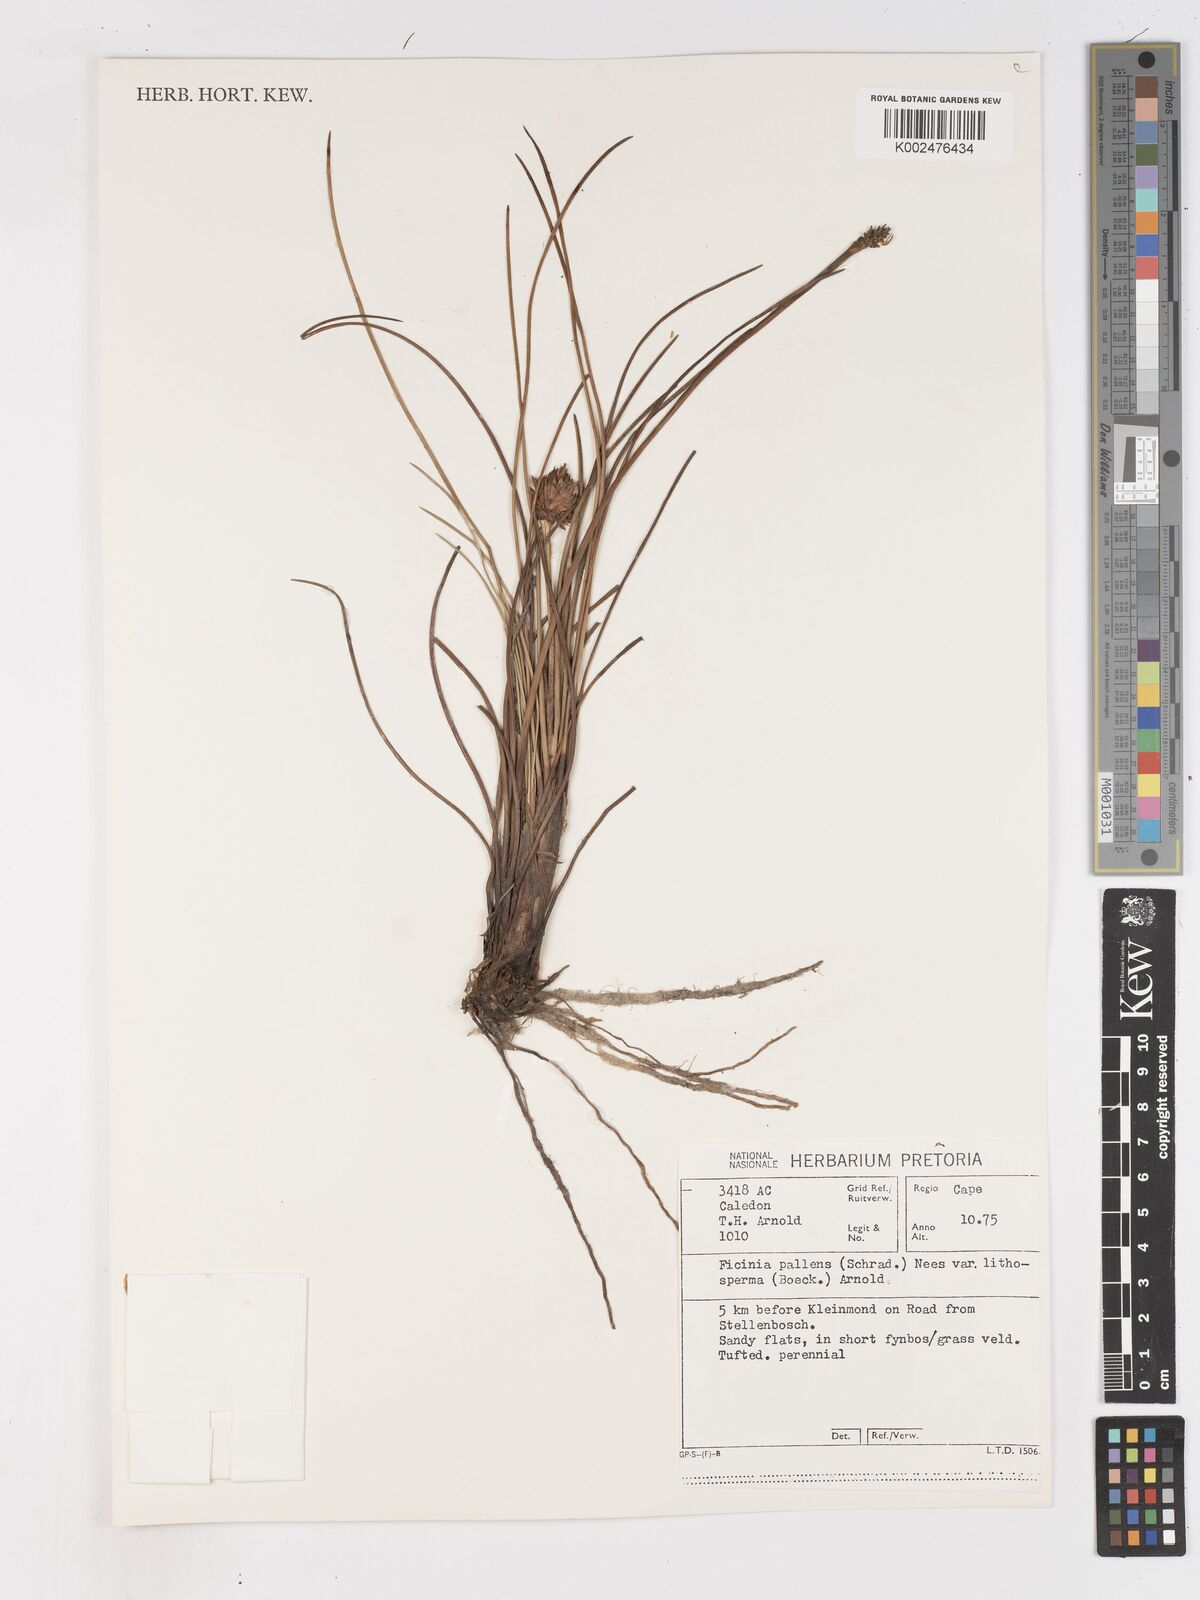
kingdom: Plantae
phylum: Tracheophyta
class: Liliopsida
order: Poales
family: Cyperaceae
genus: Ficinia
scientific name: Ficinia pallens
